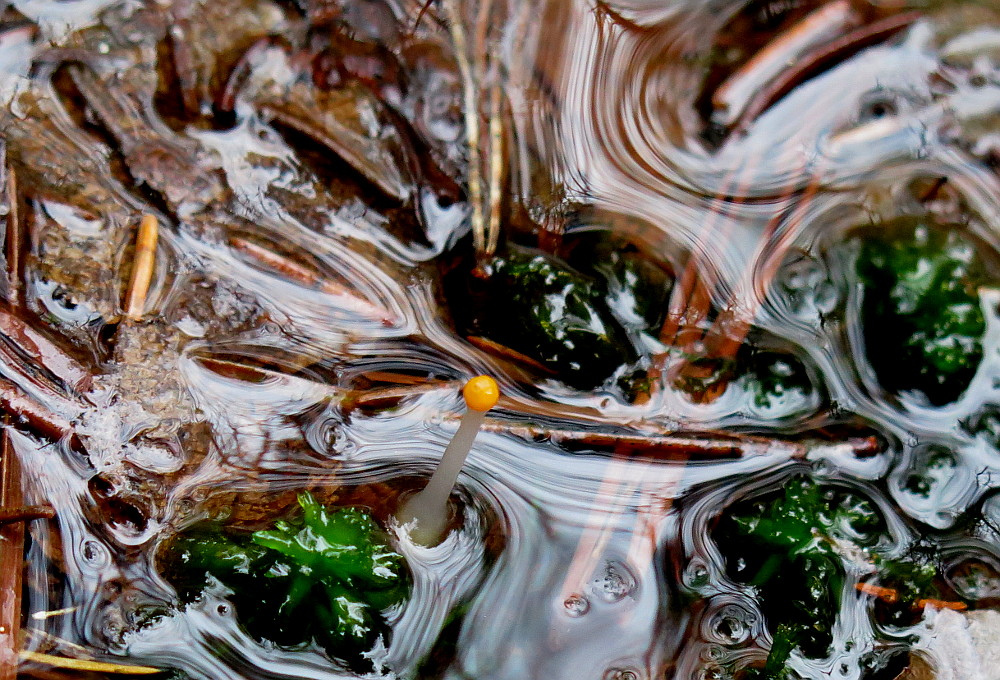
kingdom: Fungi
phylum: Ascomycota
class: Leotiomycetes
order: Helotiales
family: Cenangiaceae
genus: Mitrula
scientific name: Mitrula paludosa
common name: gul nøkketunge
